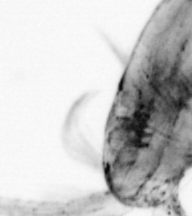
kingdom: Animalia
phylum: Arthropoda
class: Copepoda
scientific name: Copepoda
